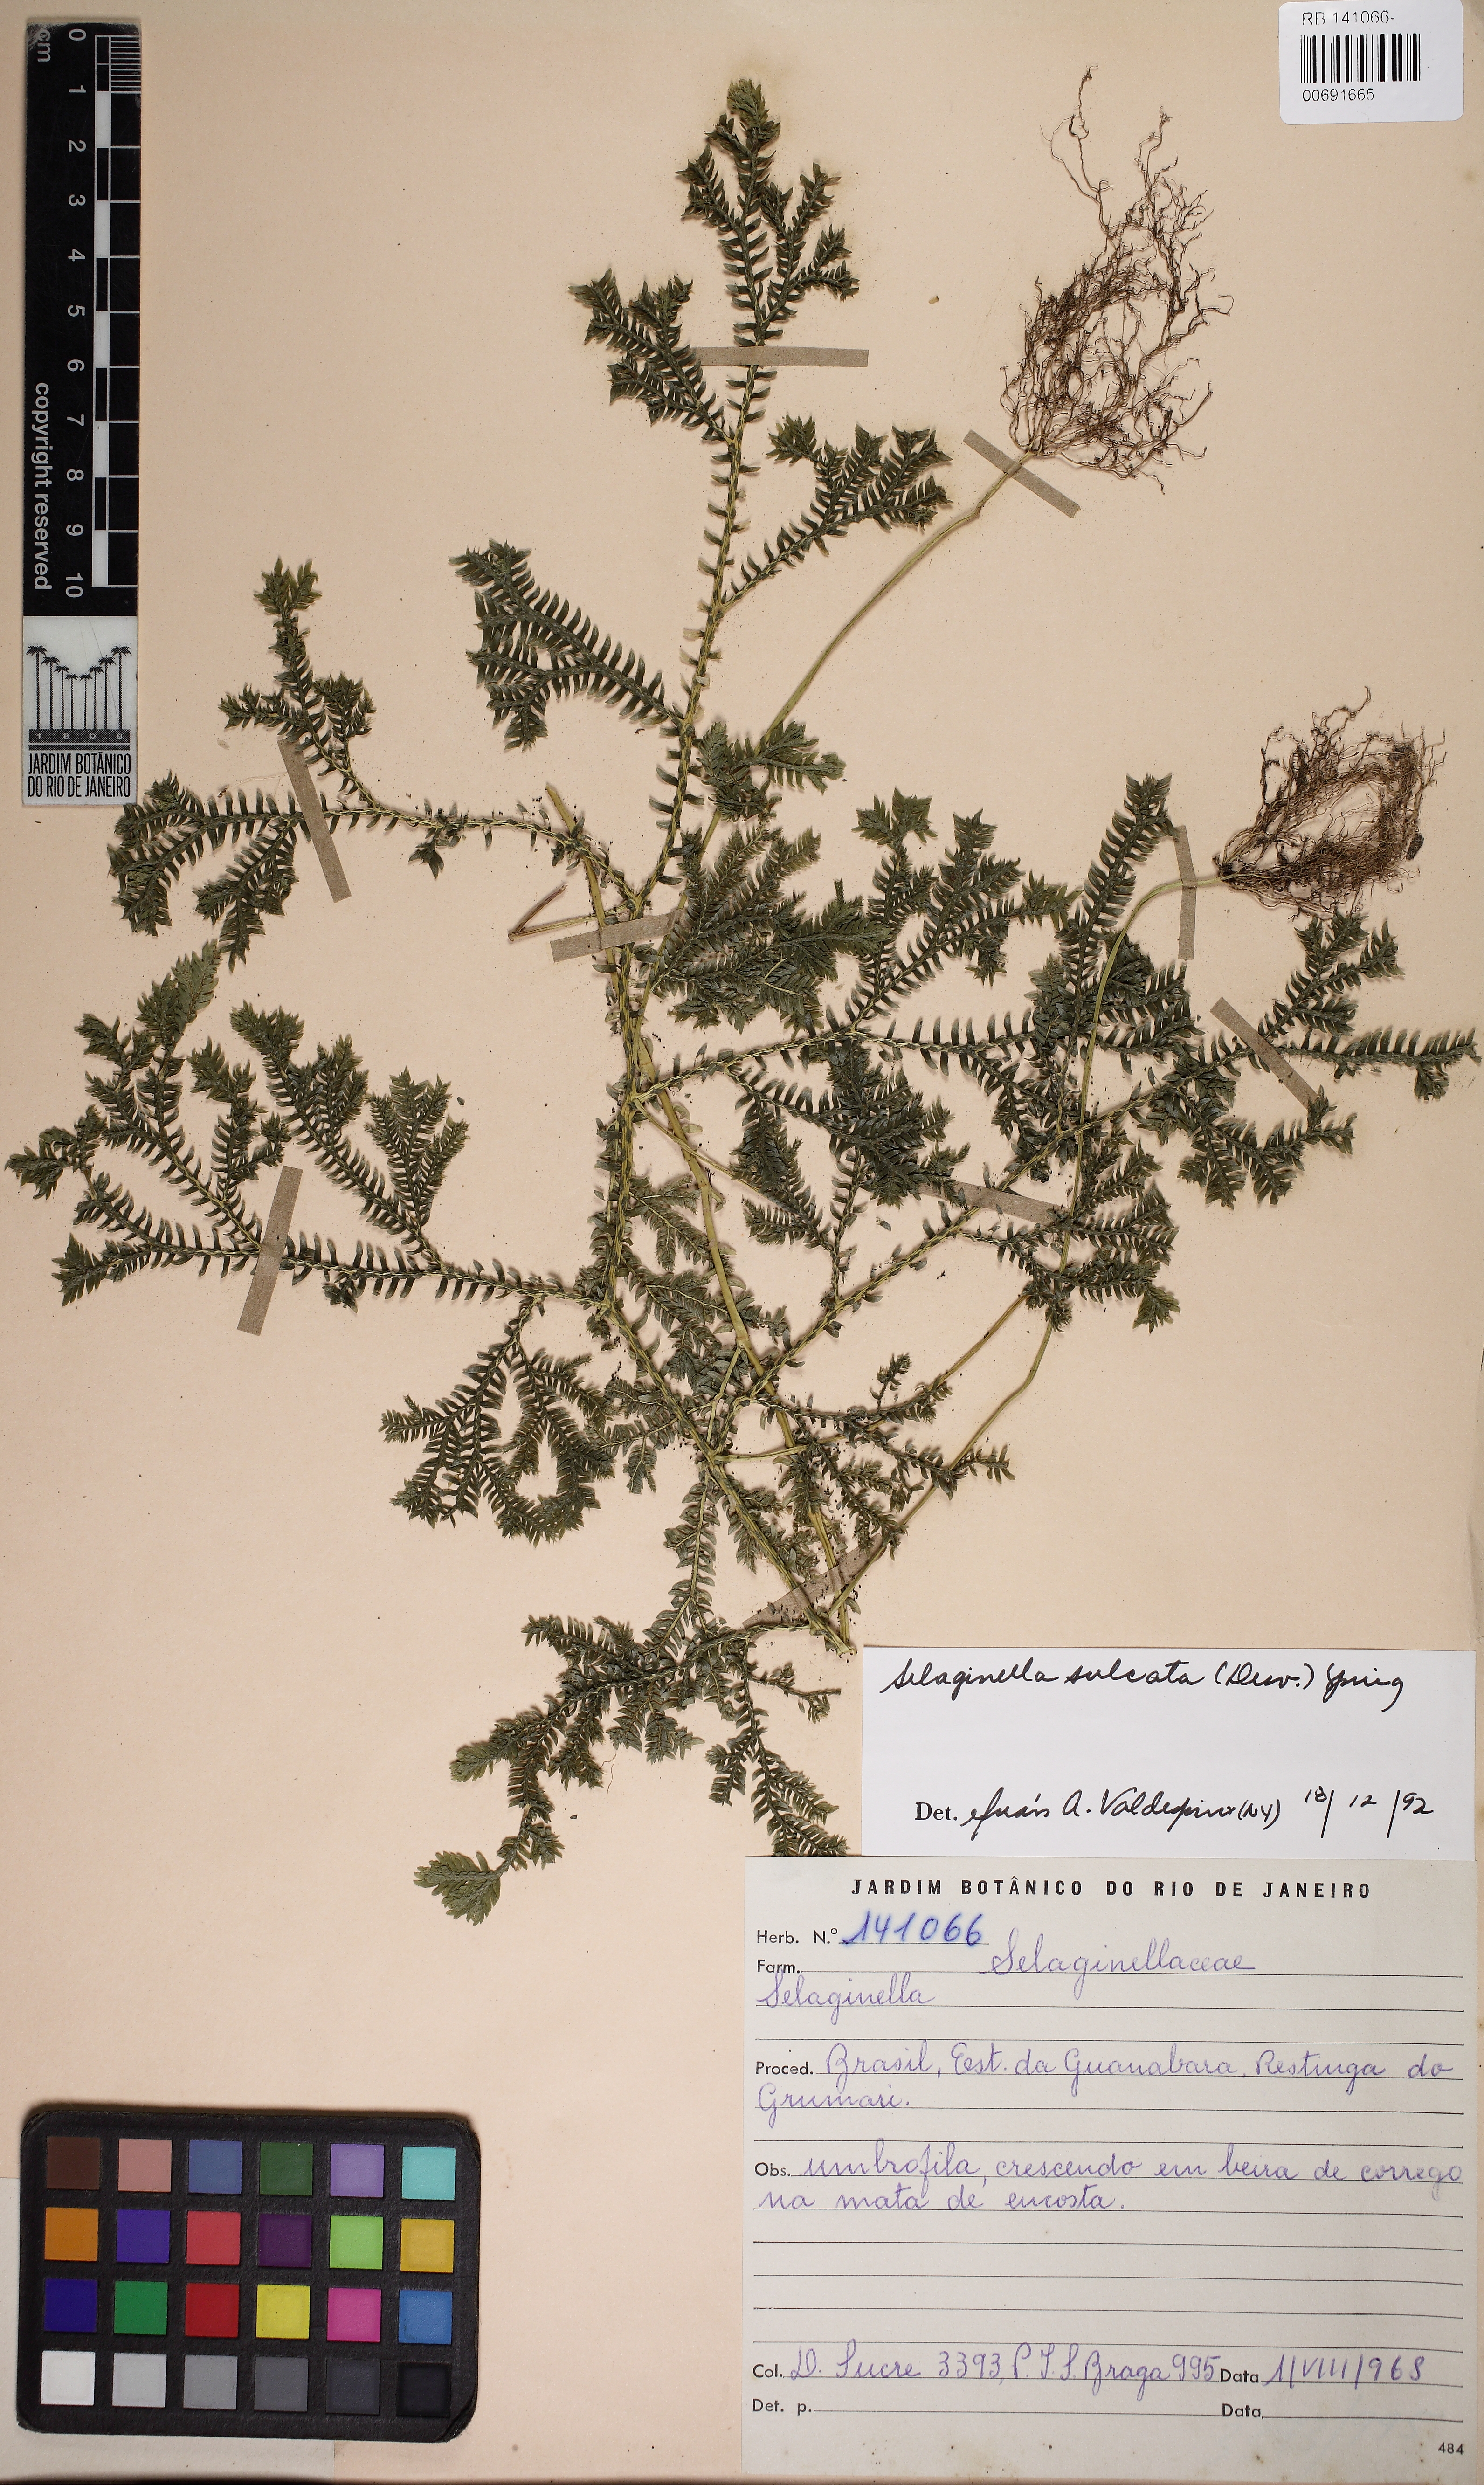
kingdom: Plantae
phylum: Tracheophyta
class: Lycopodiopsida
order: Selaginellales
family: Selaginellaceae
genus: Selaginella
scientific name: Selaginella sulcata
